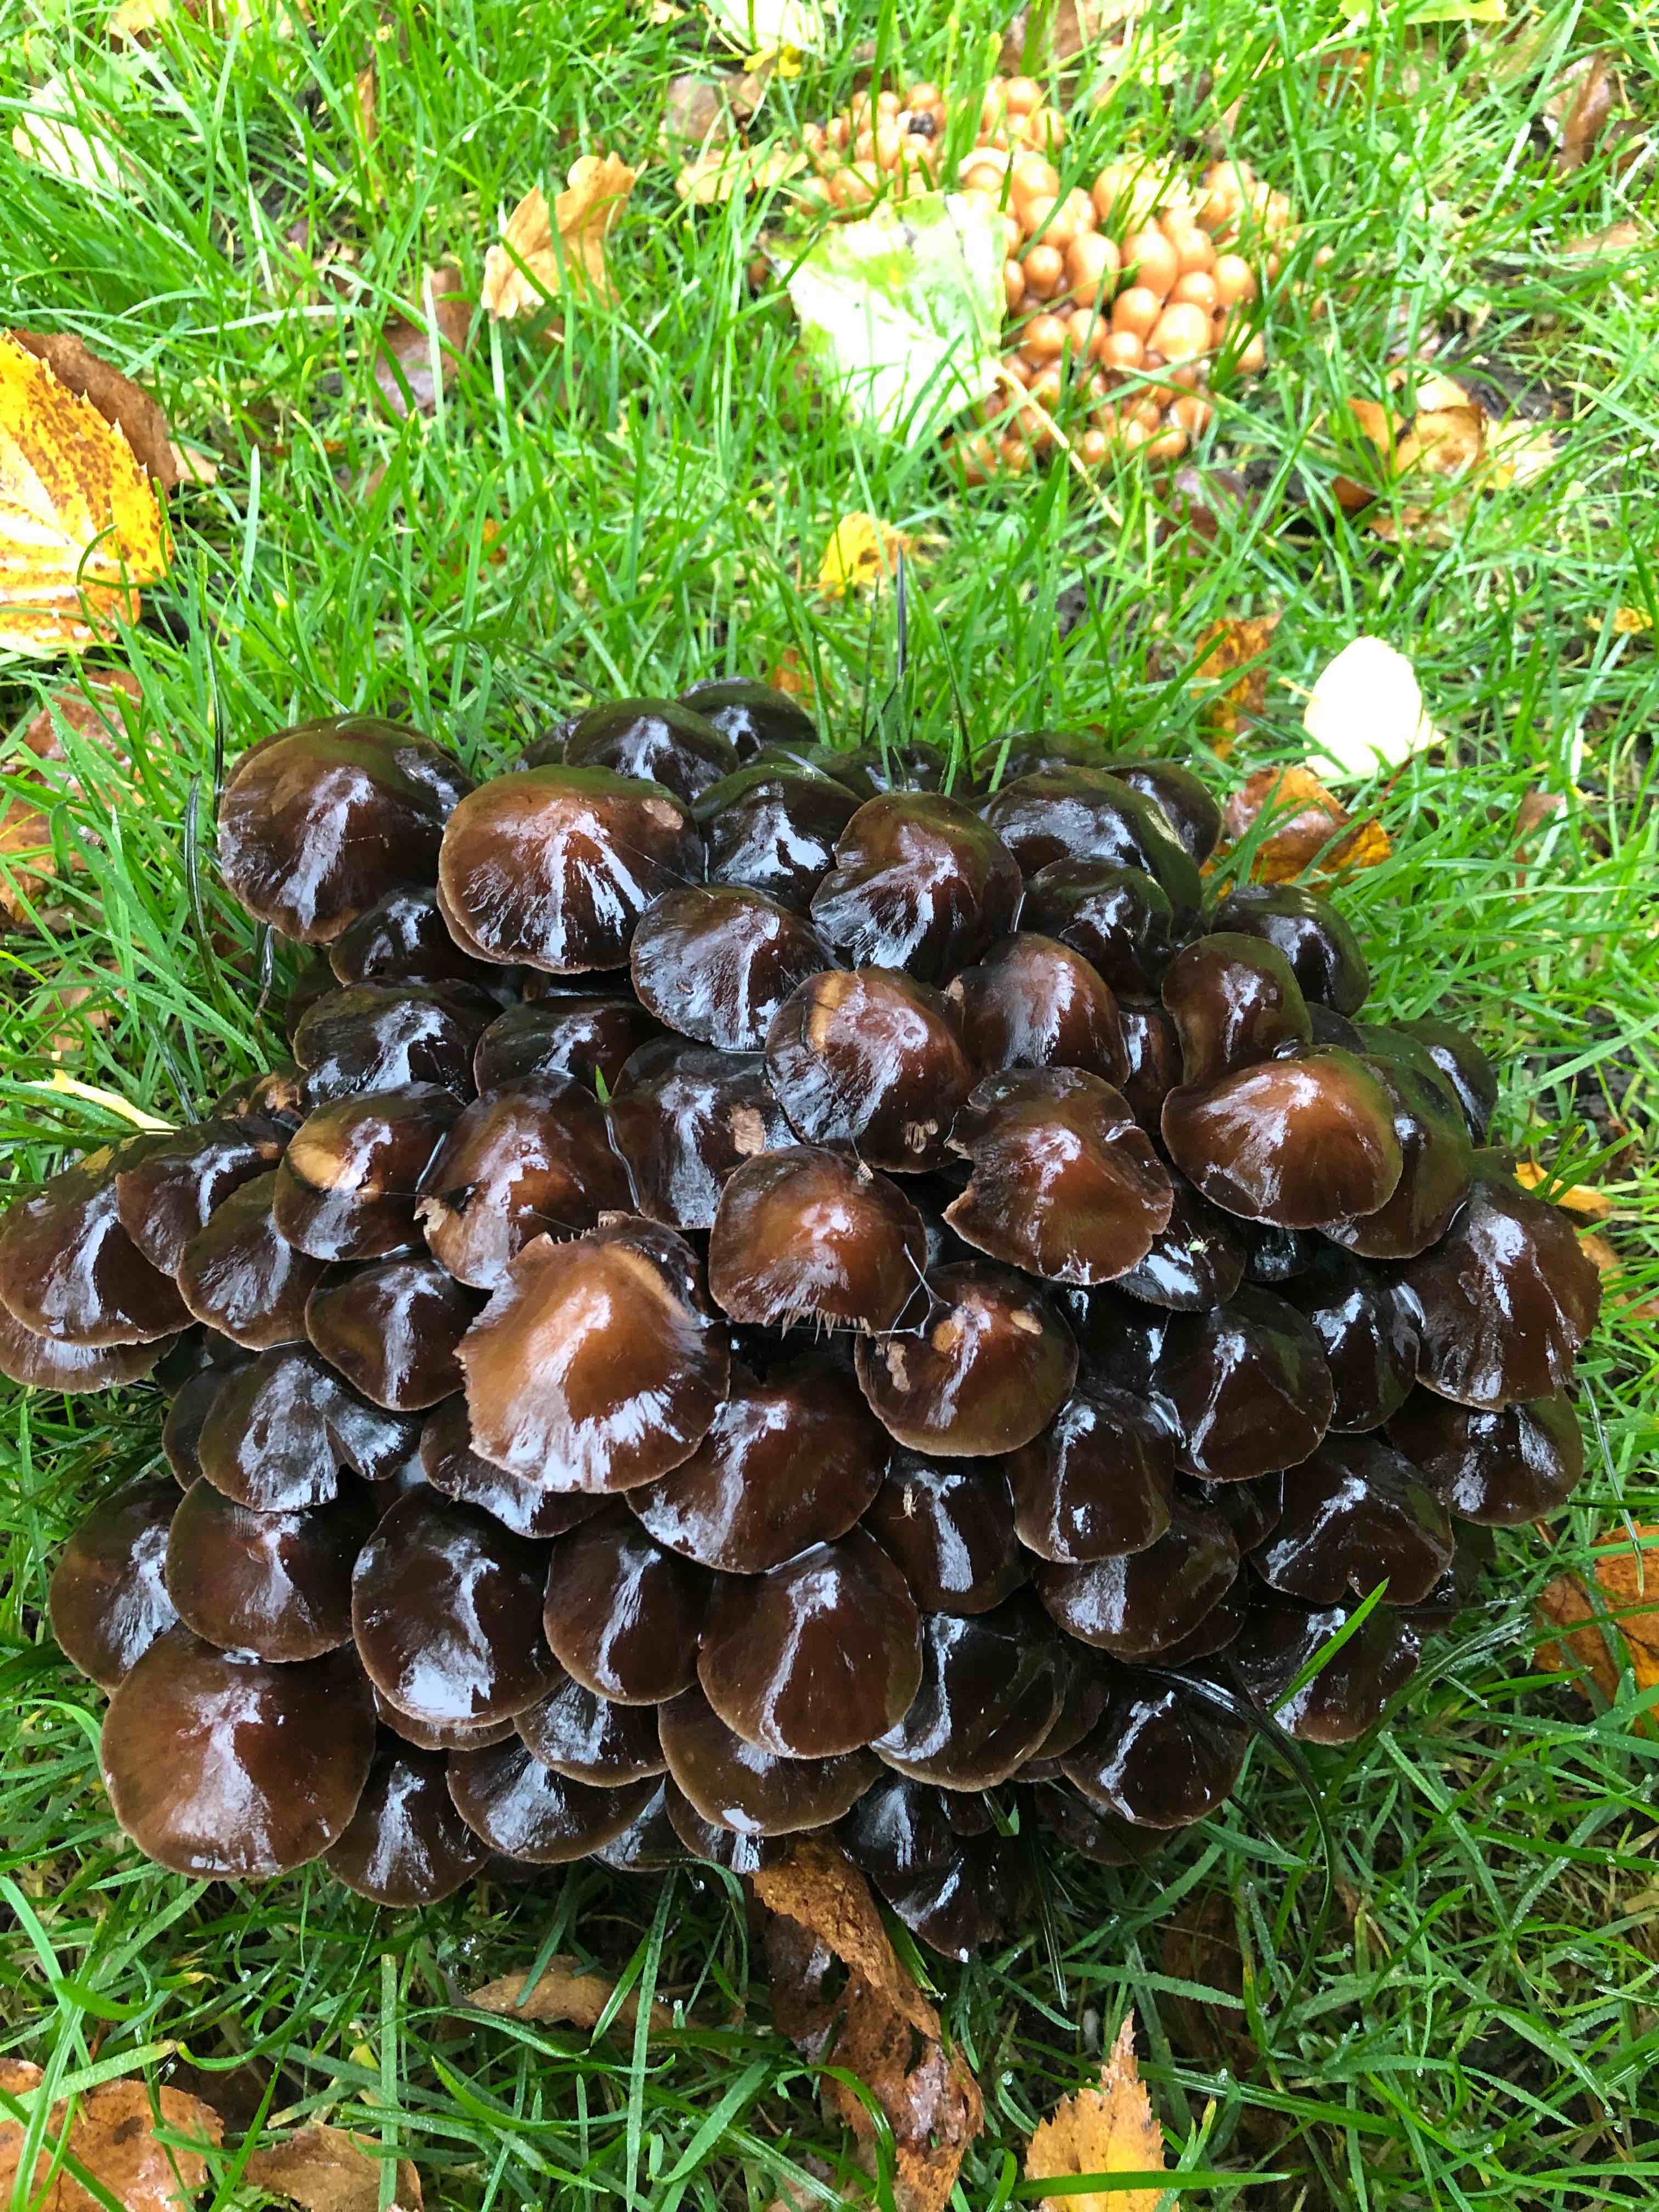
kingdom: Fungi
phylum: Basidiomycota
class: Agaricomycetes
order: Agaricales
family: Psathyrellaceae
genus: Britzelmayria
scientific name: Britzelmayria multipedata
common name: knippe-mørkhat
